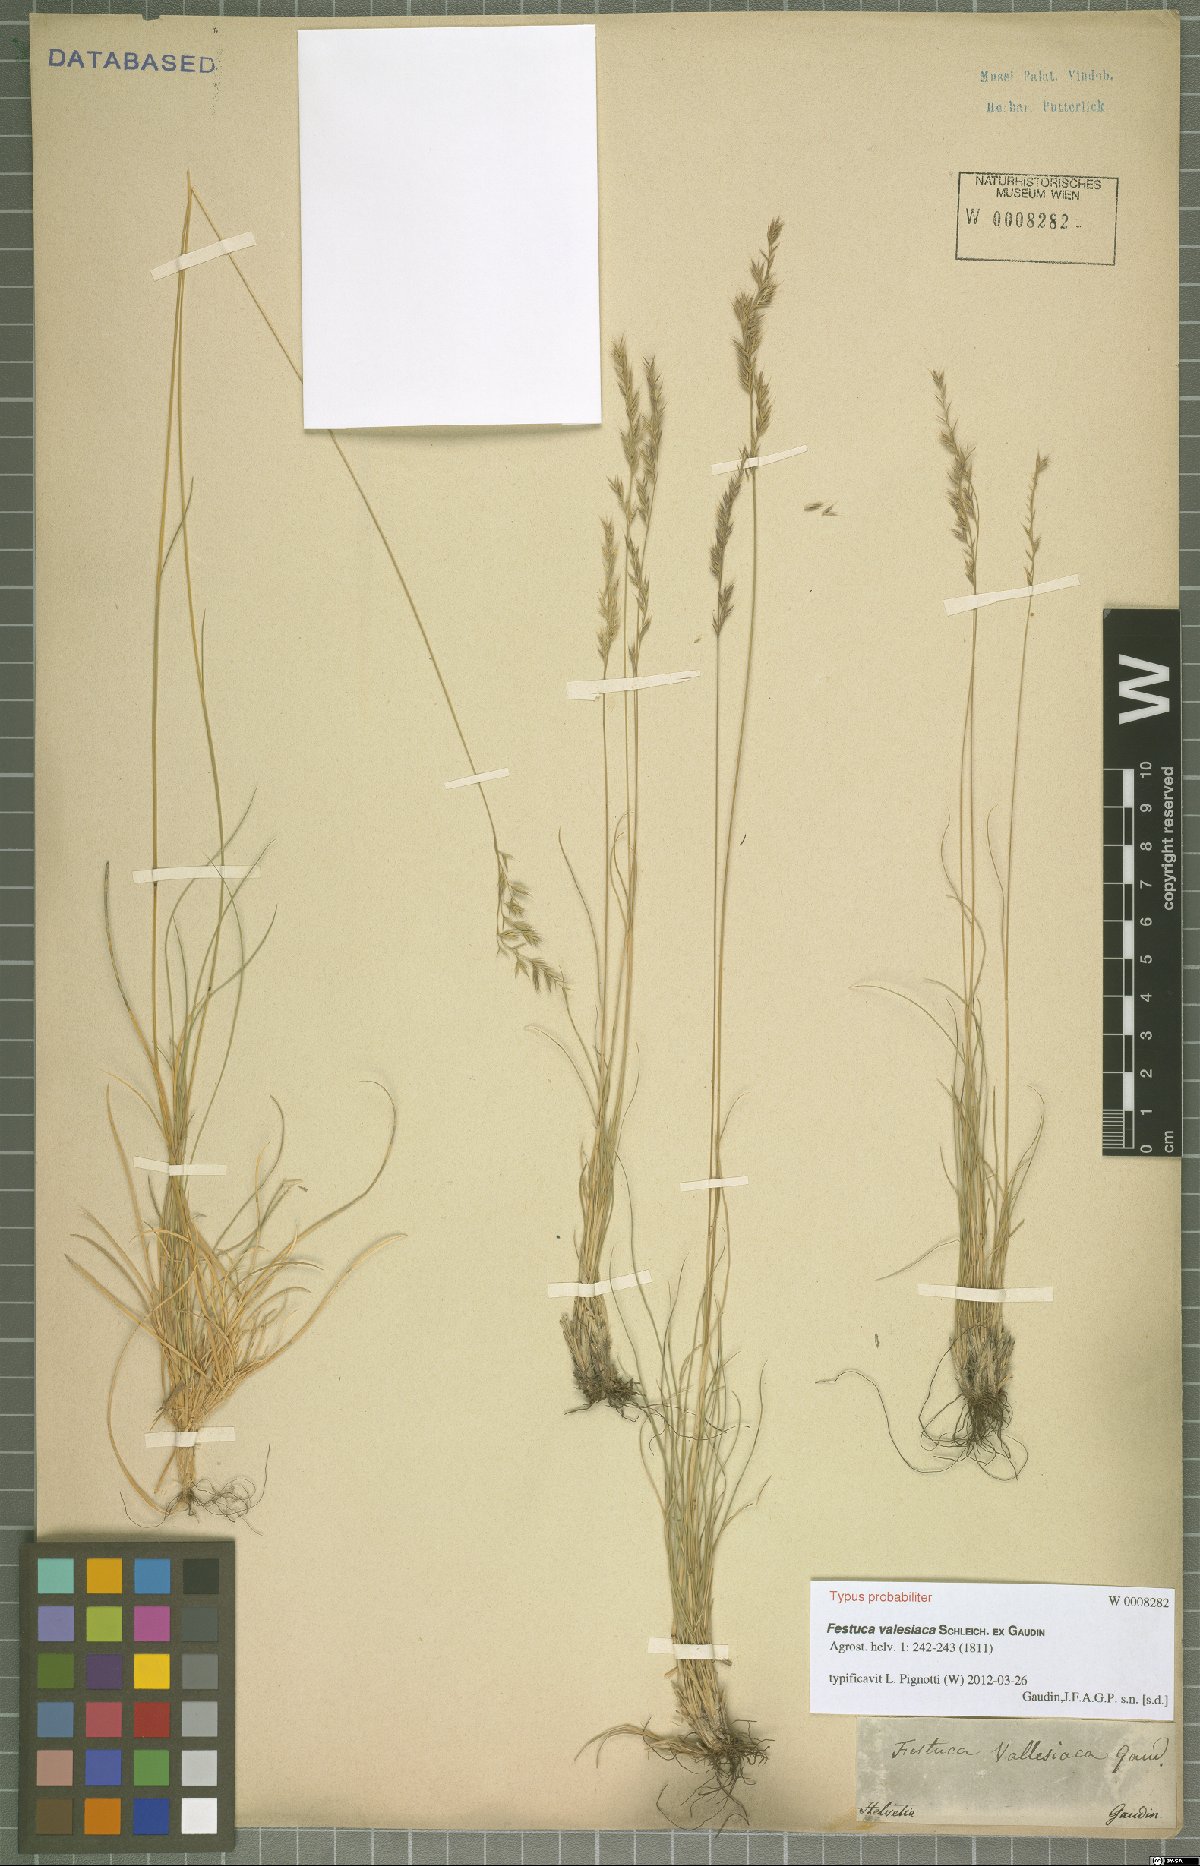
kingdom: Plantae
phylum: Tracheophyta
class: Liliopsida
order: Poales
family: Poaceae
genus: Festuca
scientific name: Festuca valesiaca
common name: Volga fescue
